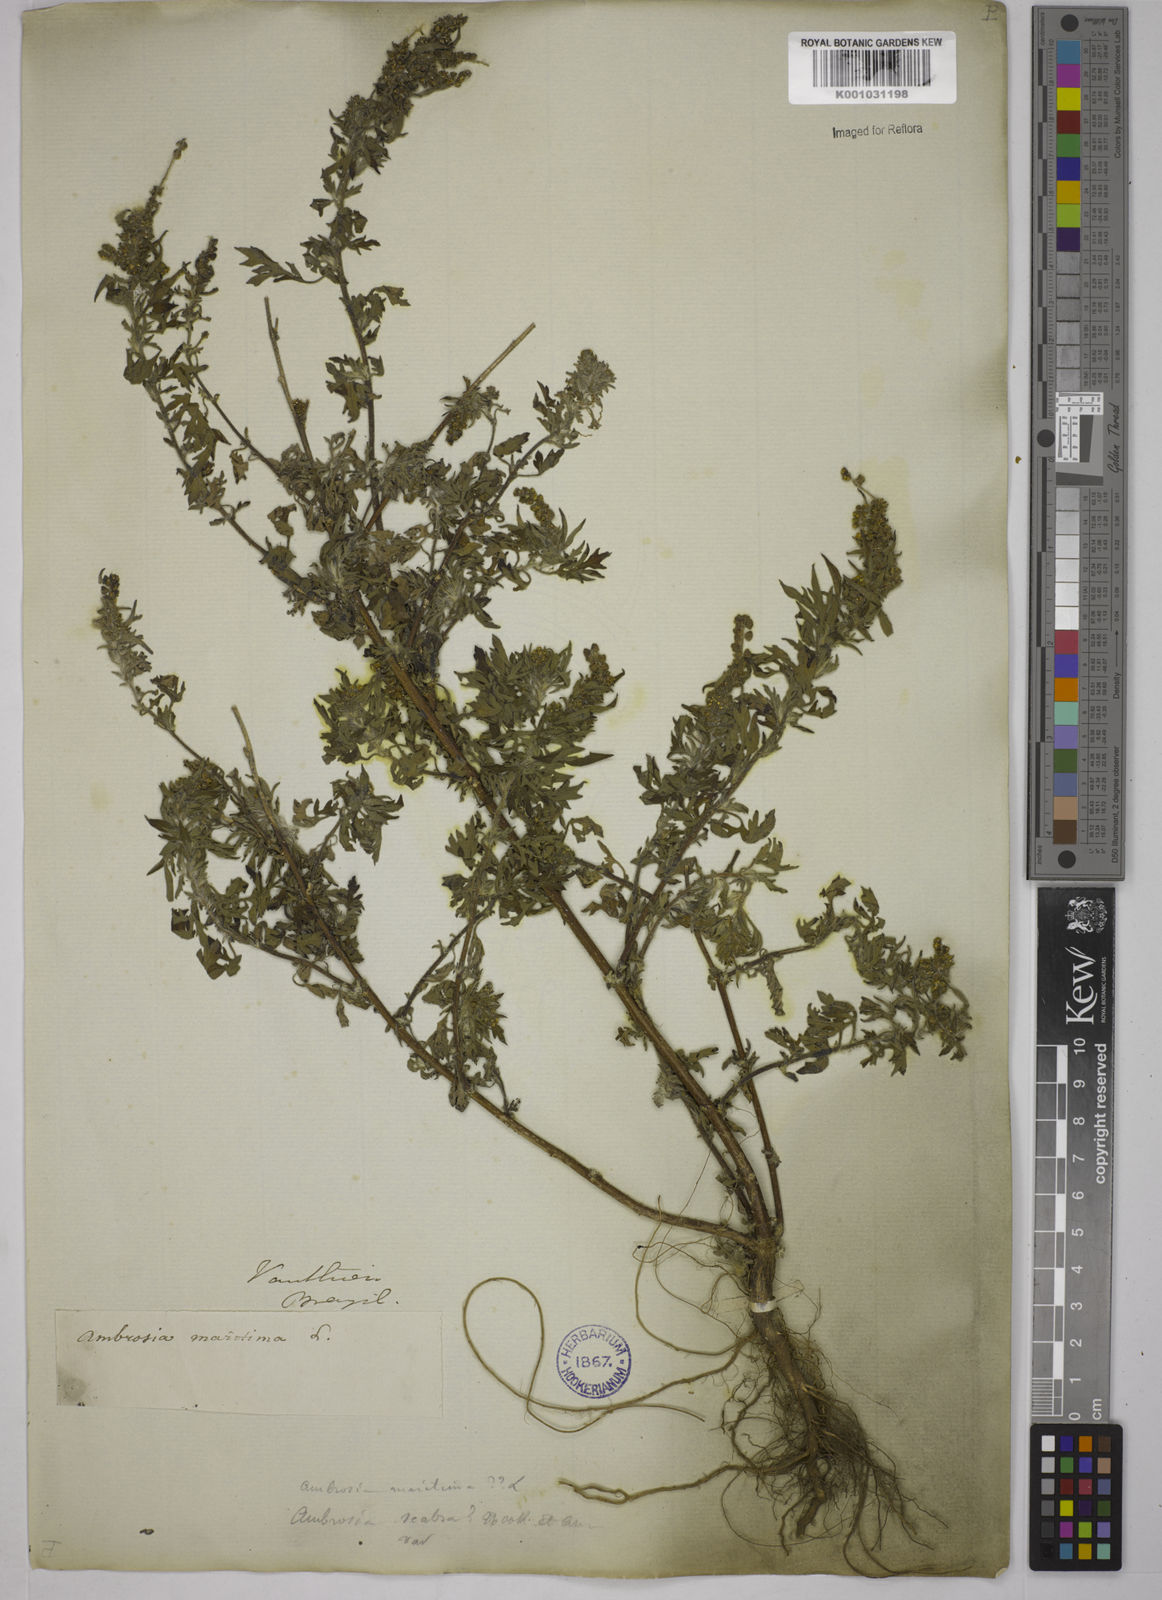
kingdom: Plantae
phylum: Tracheophyta
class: Magnoliopsida
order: Asterales
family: Asteraceae
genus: Ambrosia
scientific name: Ambrosia artemisiifolia
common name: Annual ragweed
